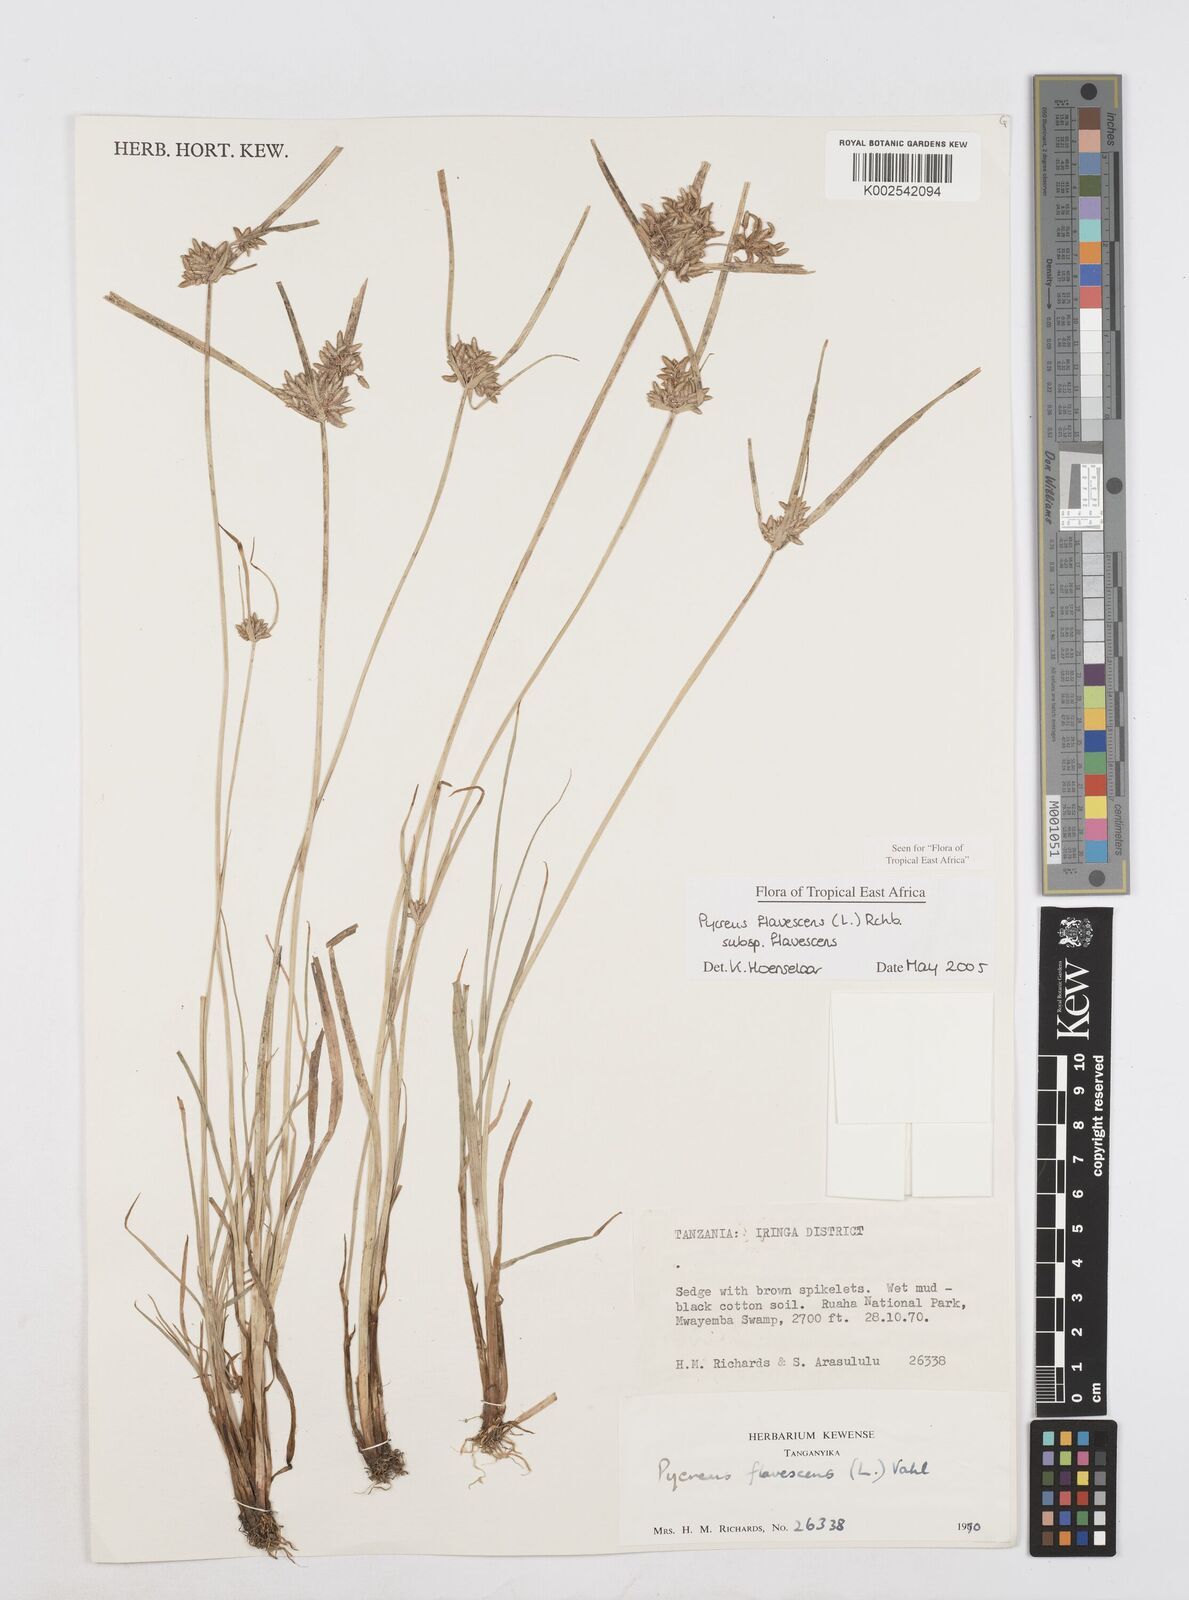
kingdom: Plantae
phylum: Tracheophyta
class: Liliopsida
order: Poales
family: Cyperaceae
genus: Cyperus
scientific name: Cyperus flavescens
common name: Yellow galingale
